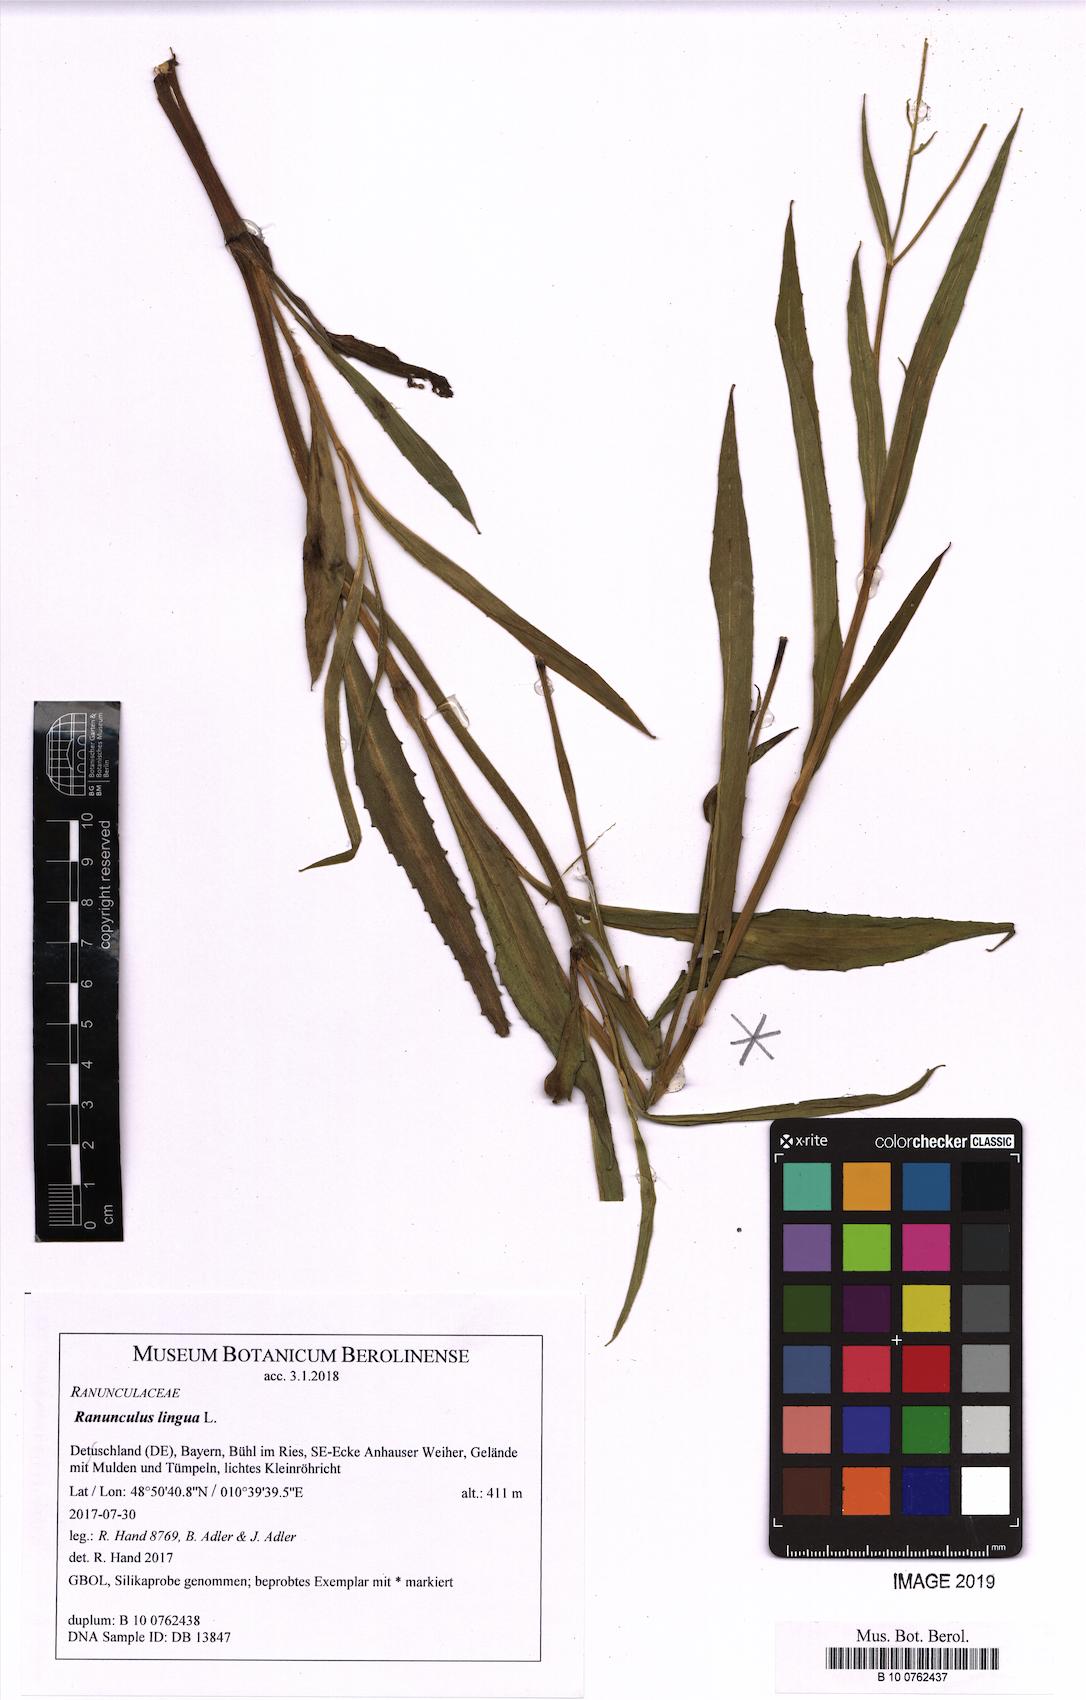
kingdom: Plantae
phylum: Tracheophyta
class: Magnoliopsida
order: Ranunculales
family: Ranunculaceae
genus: Ranunculus
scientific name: Ranunculus lingua
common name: Greater spearwort
